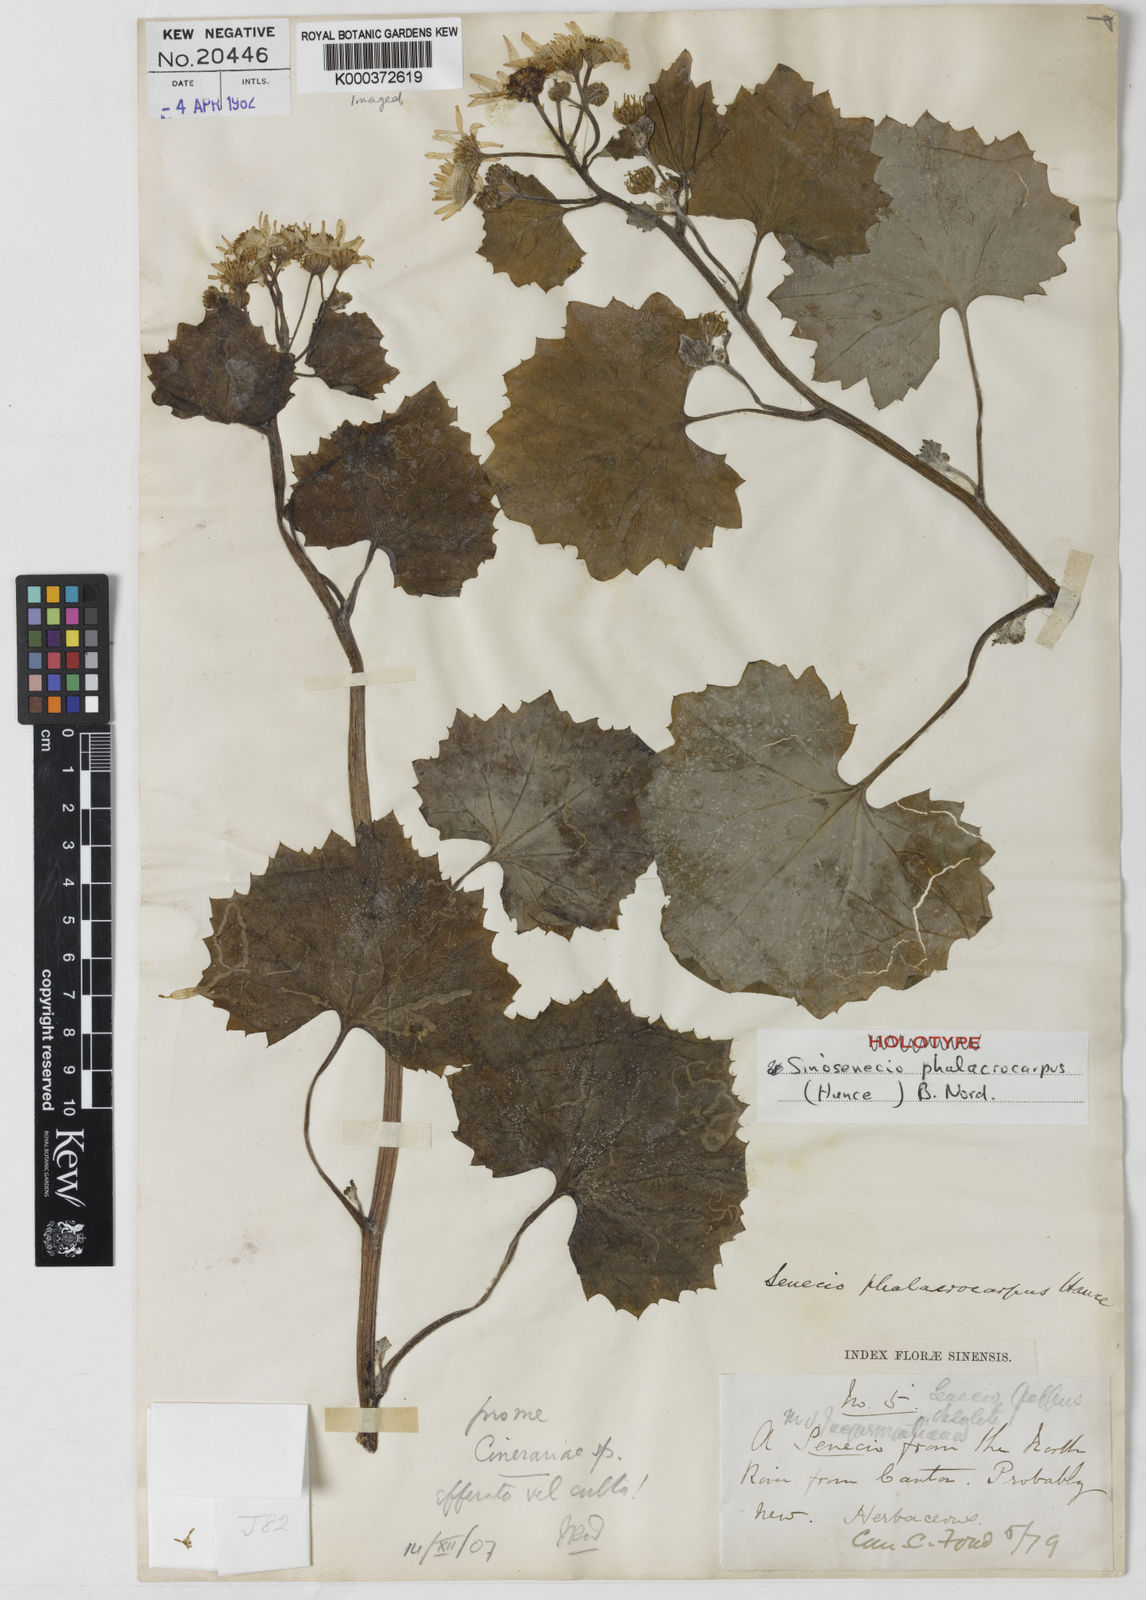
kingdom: Plantae
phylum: Tracheophyta
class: Magnoliopsida
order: Asterales
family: Asteraceae
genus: Sinosenecio
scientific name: Sinosenecio phalacrocarpus
